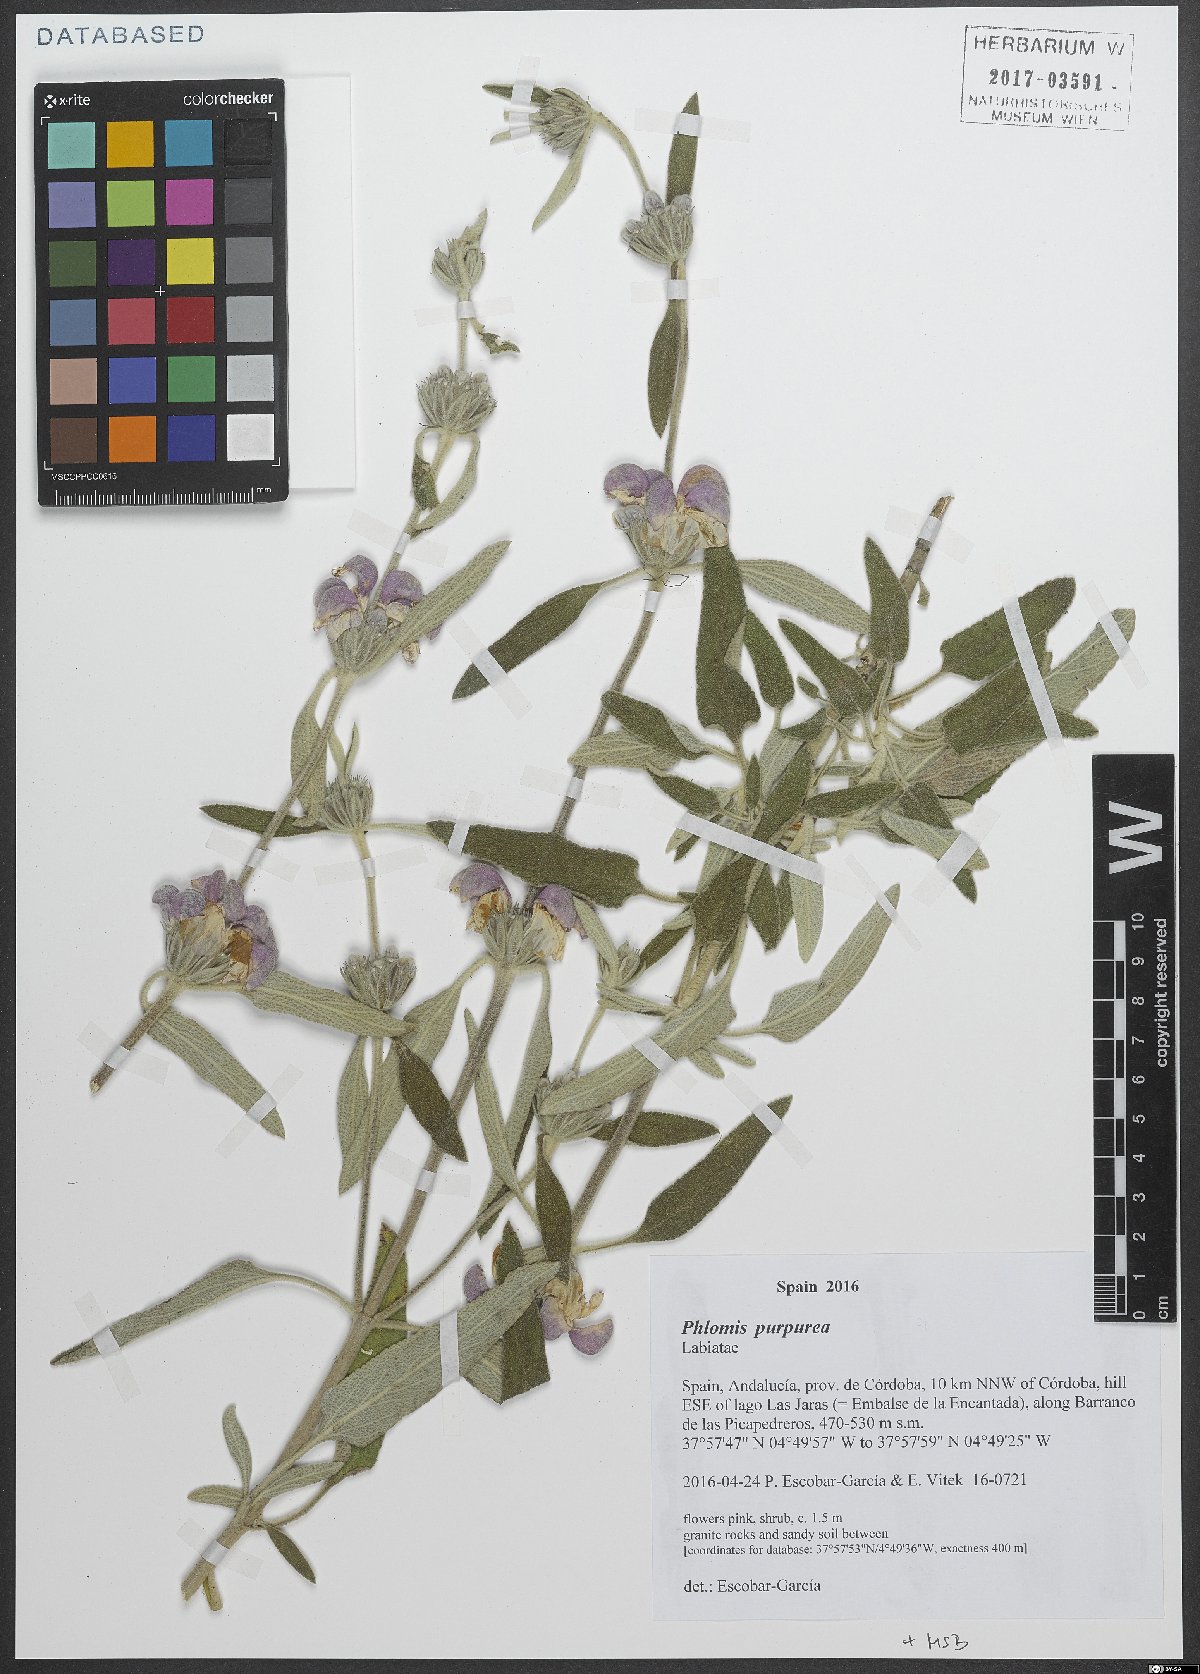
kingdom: Plantae
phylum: Tracheophyta
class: Magnoliopsida
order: Lamiales
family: Lamiaceae
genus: Phlomis
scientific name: Phlomis purpurea
